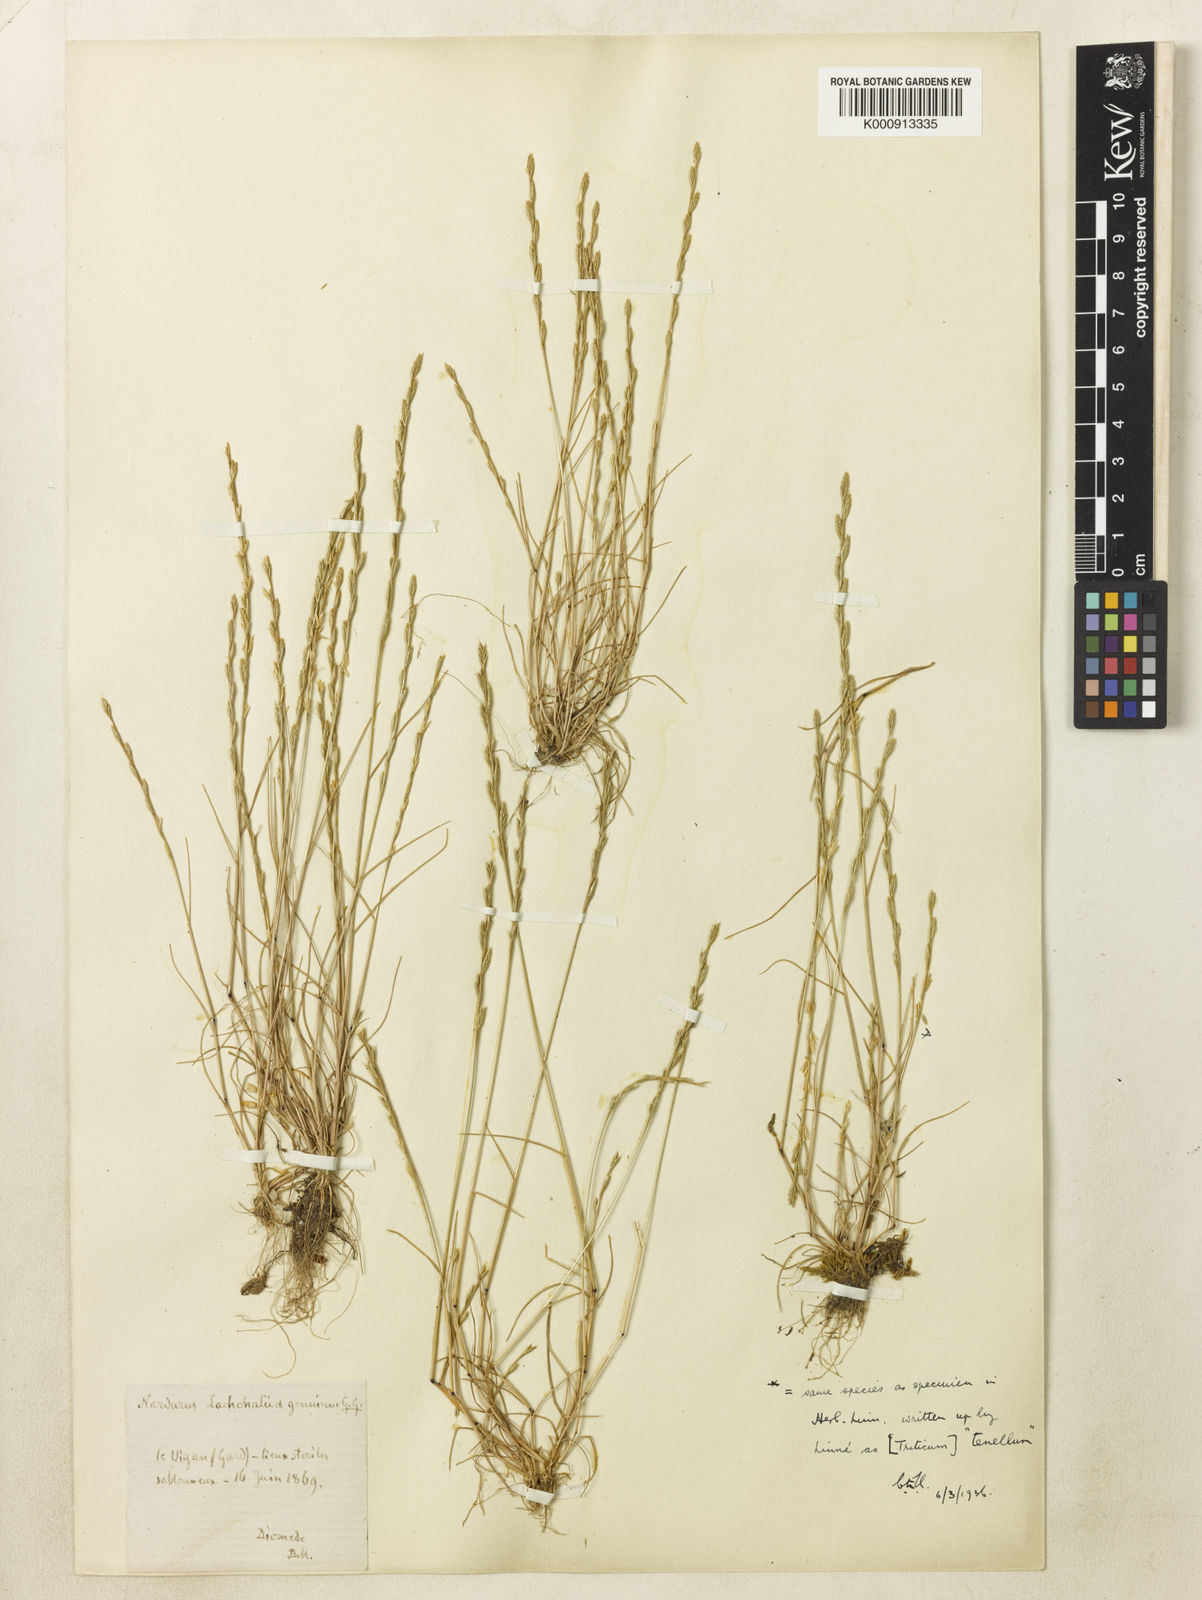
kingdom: Plantae
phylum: Tracheophyta
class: Liliopsida
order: Poales
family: Poaceae
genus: Festuca
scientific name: Festuca lachenalii
